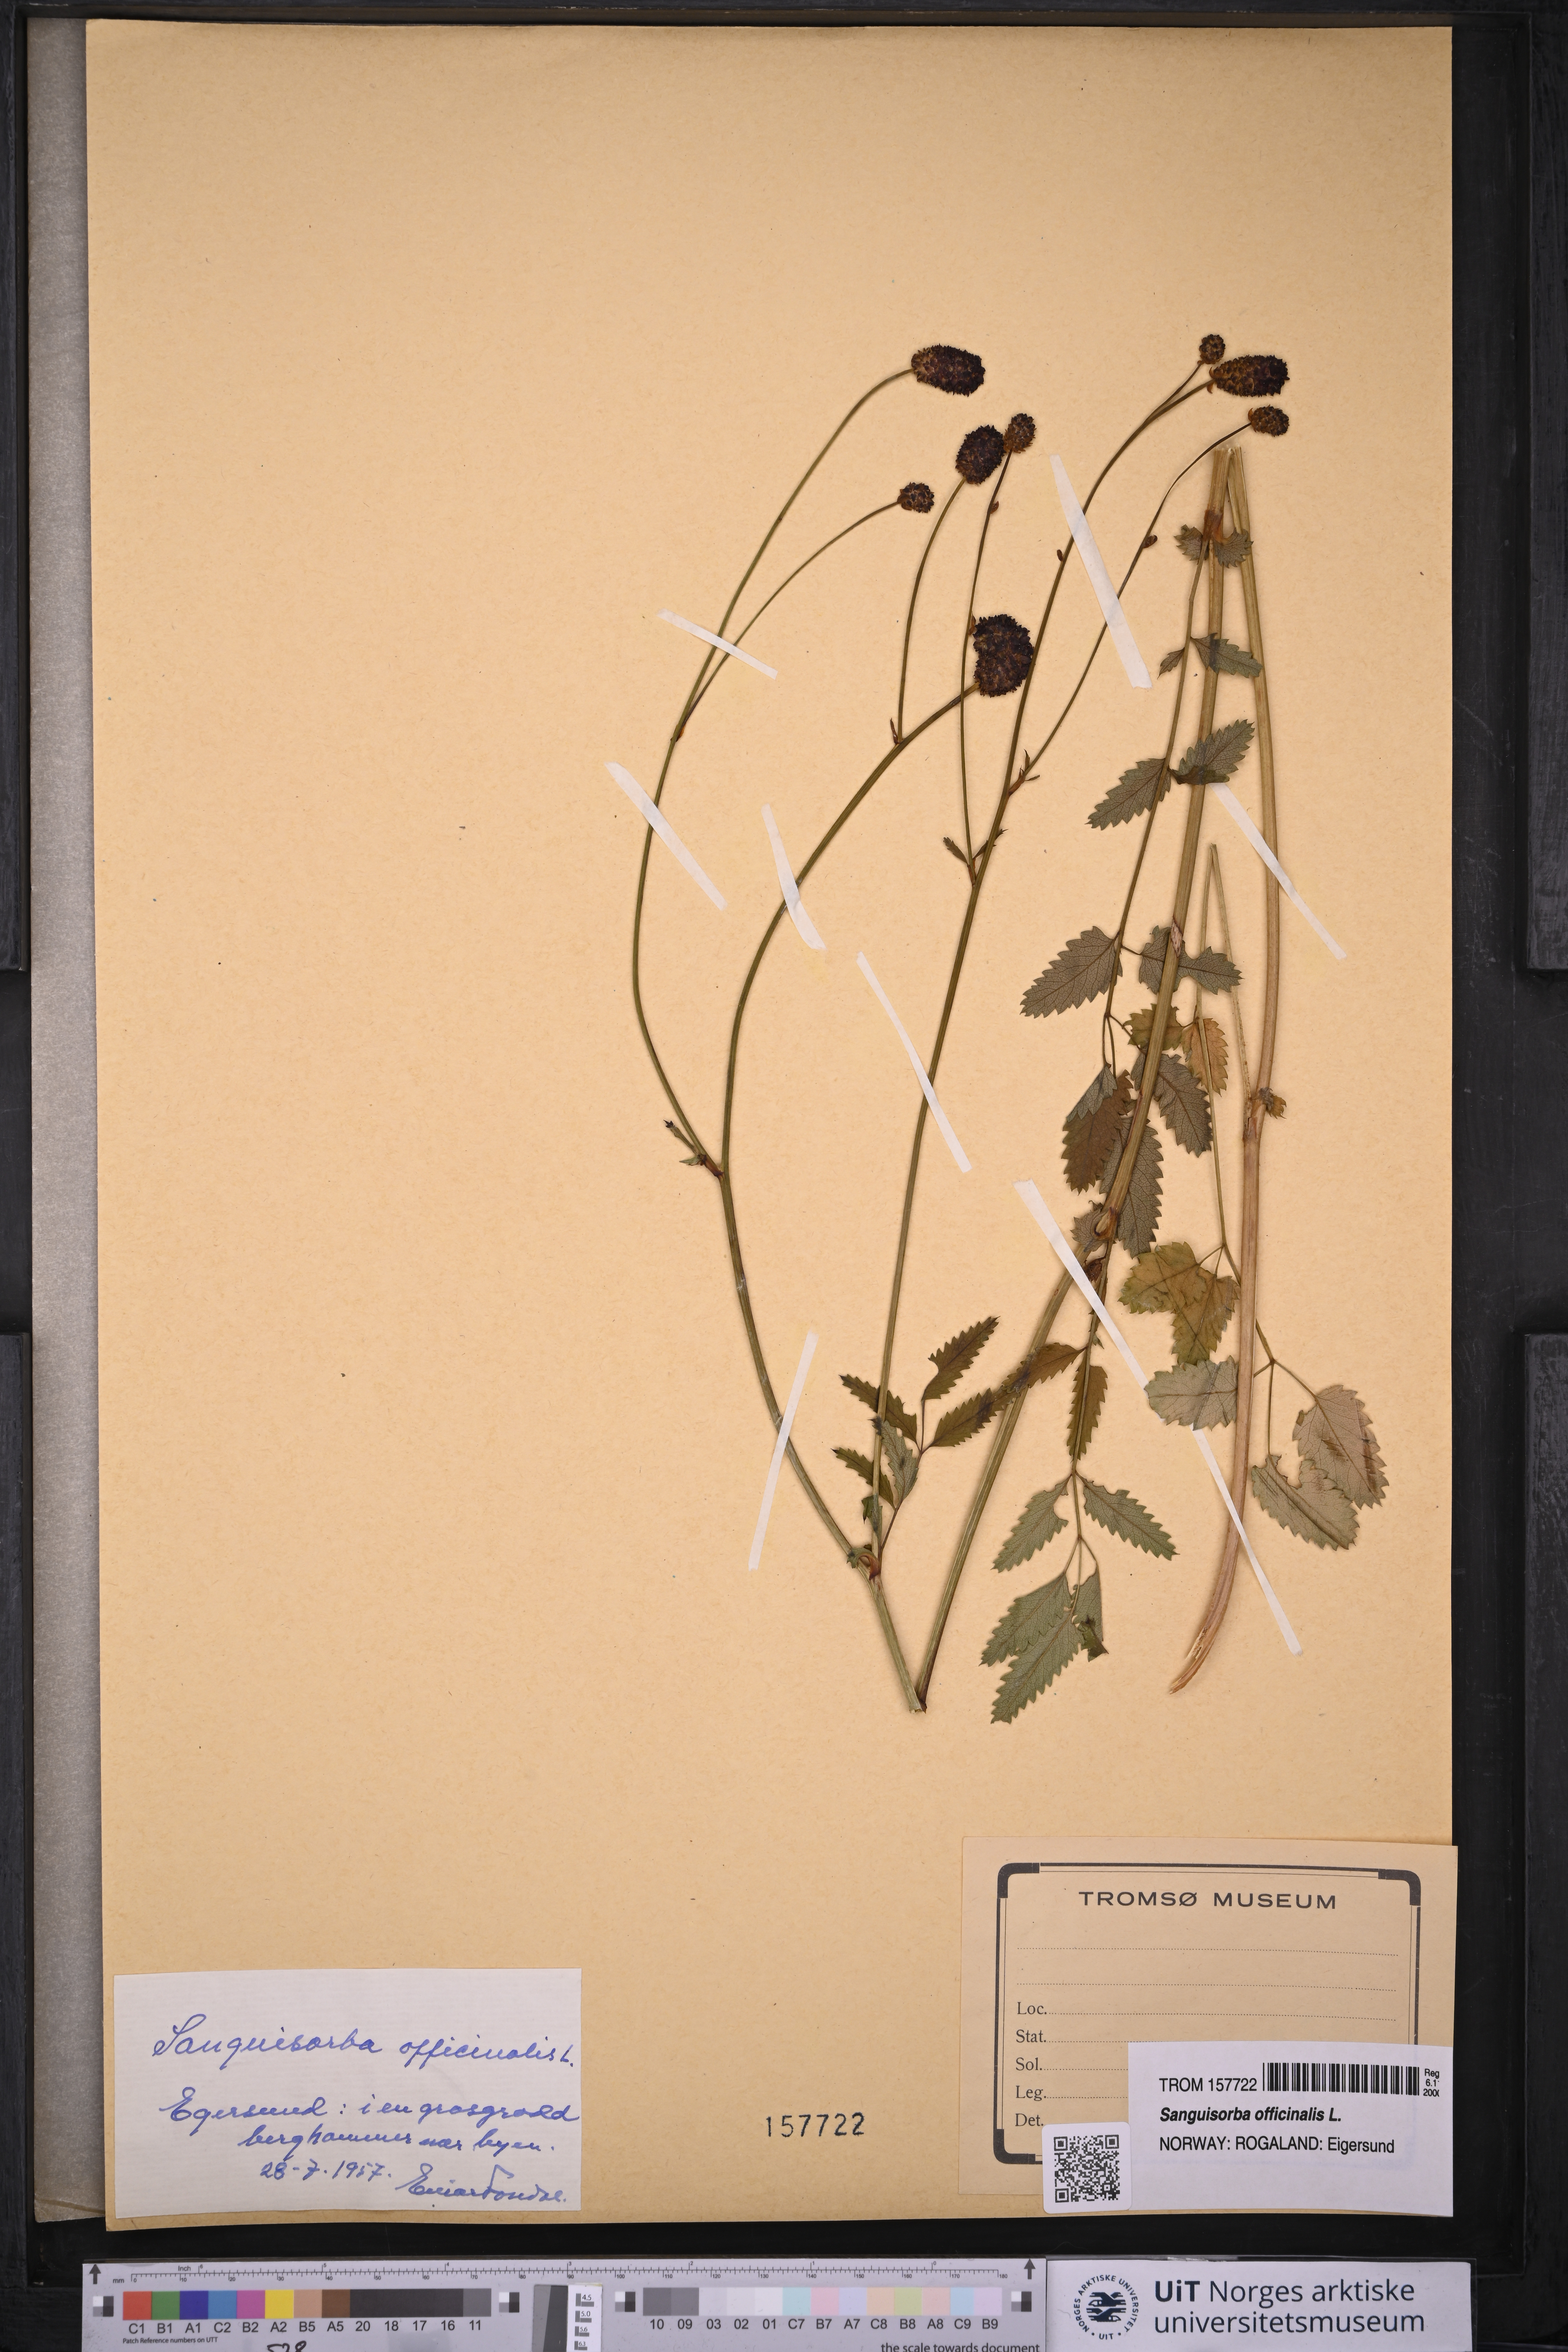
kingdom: Plantae
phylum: Tracheophyta
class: Magnoliopsida
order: Rosales
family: Rosaceae
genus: Sanguisorba
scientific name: Sanguisorba officinalis
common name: Great burnet
